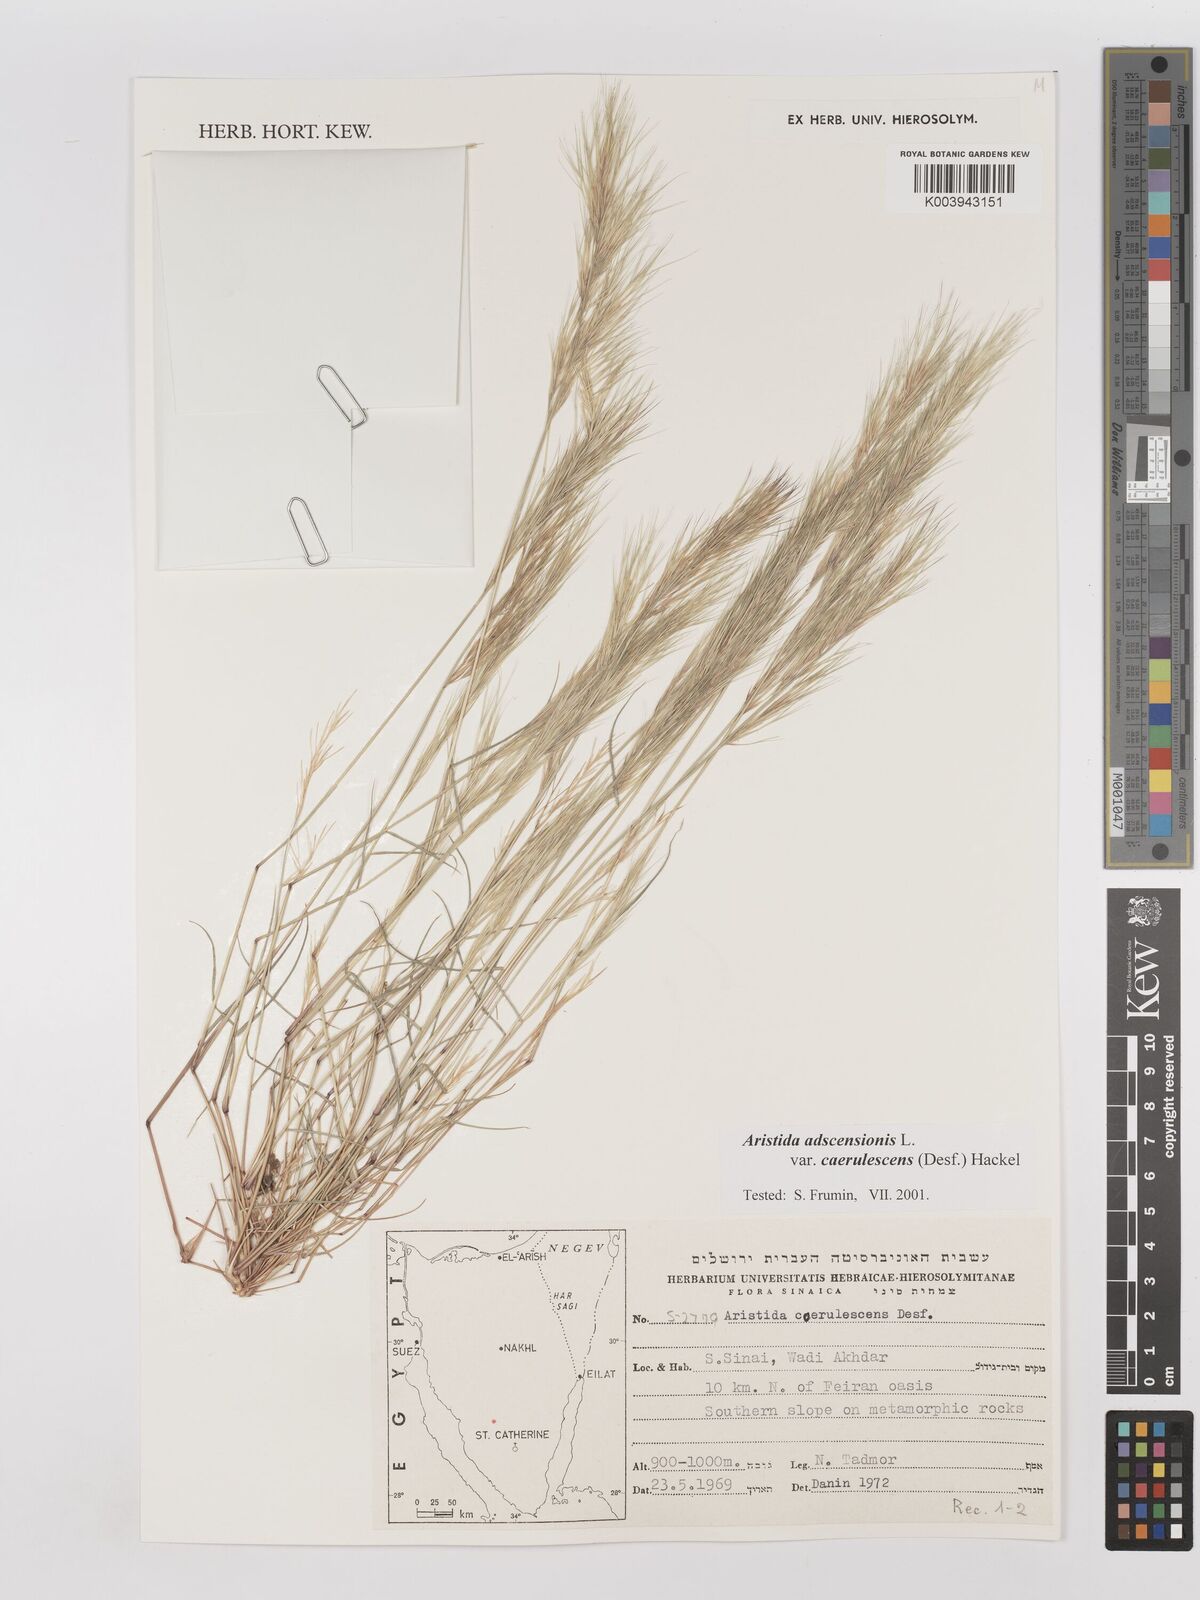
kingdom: Plantae
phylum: Tracheophyta
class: Liliopsida
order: Poales
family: Poaceae
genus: Aristida
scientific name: Aristida adscensionis
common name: Sixweeks threeawn
